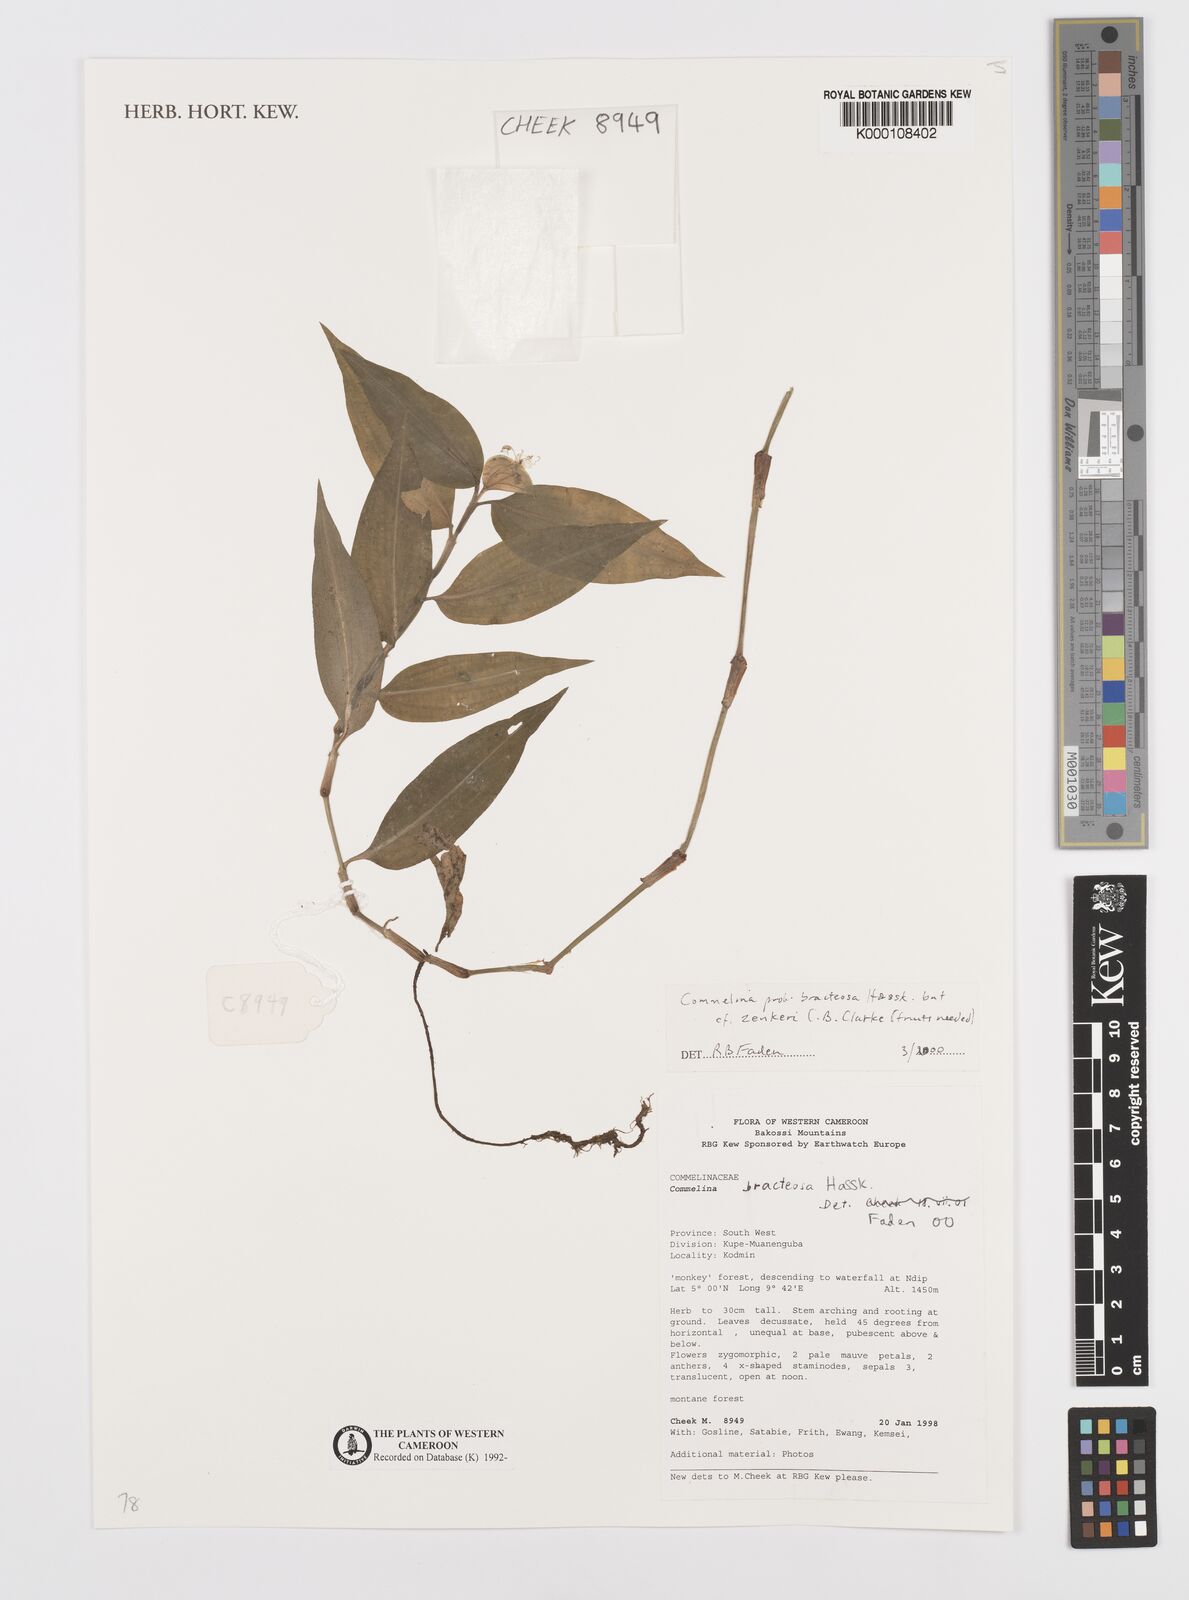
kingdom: Plantae
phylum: Tracheophyta
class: Liliopsida
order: Commelinales
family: Commelinaceae
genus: Commelina
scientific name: Commelina bracteosa
